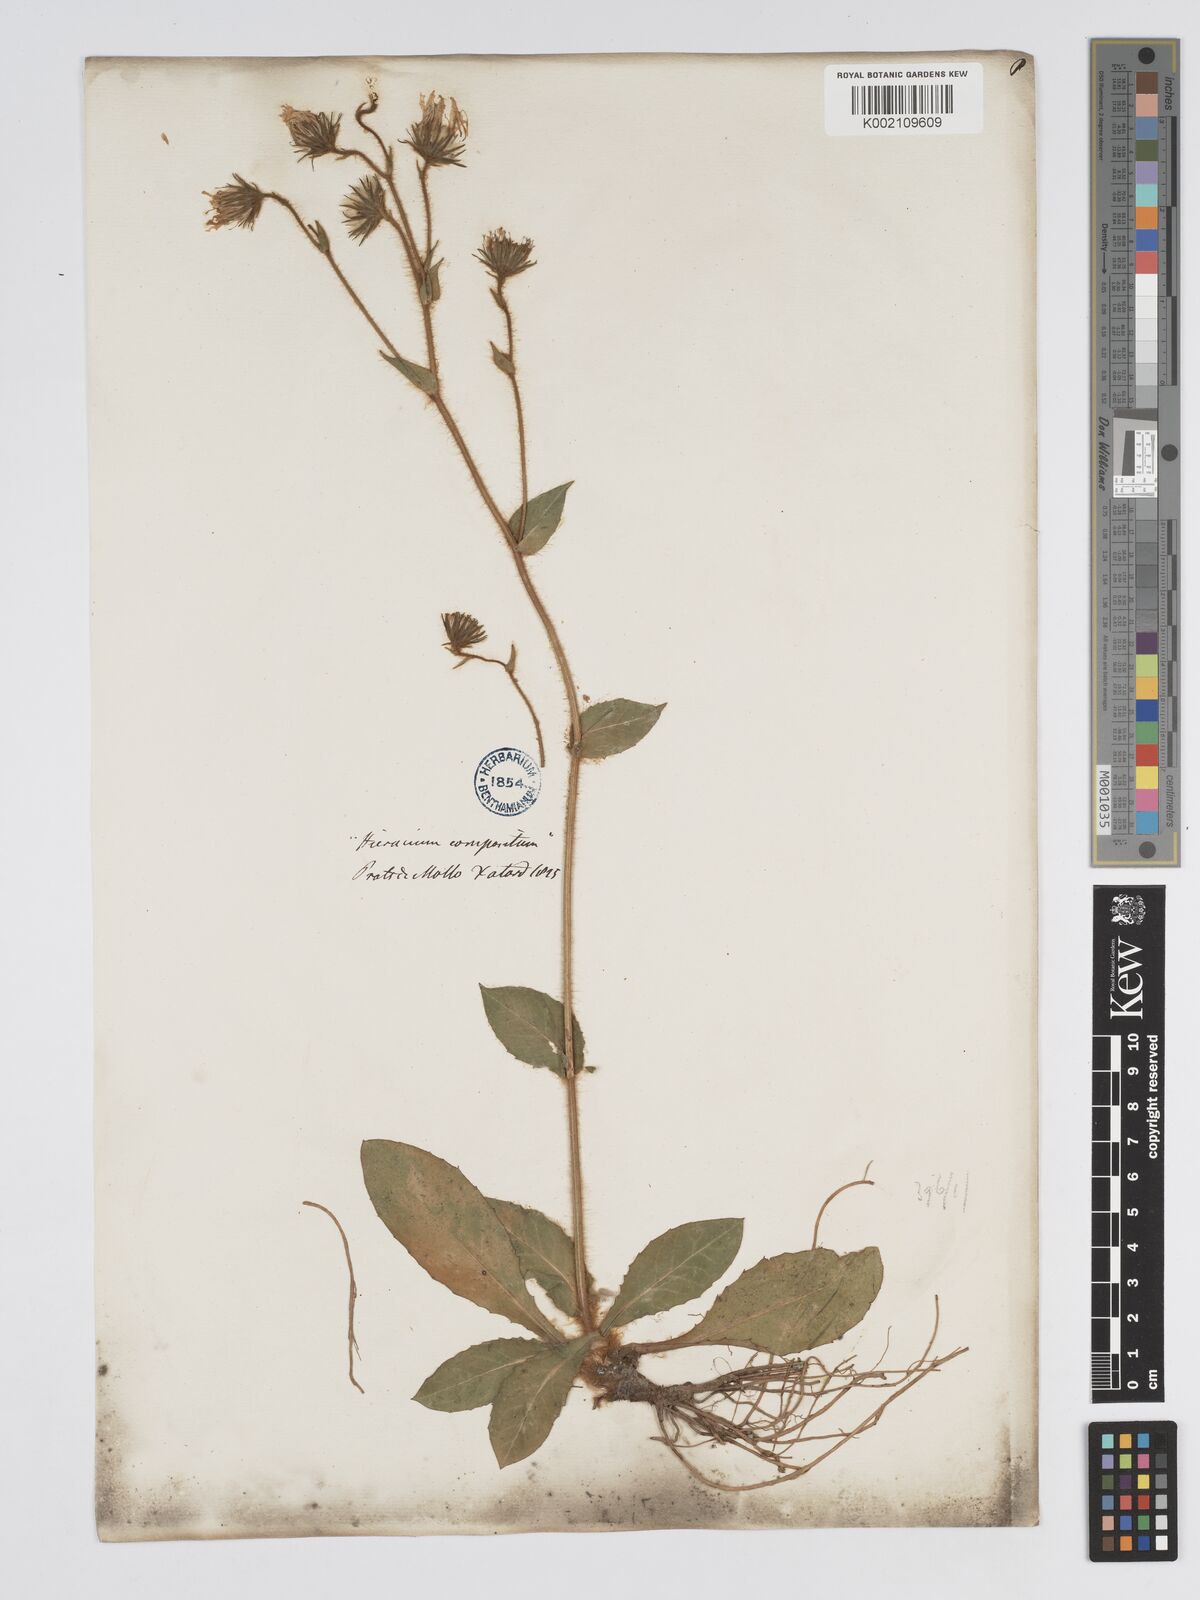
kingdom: Plantae
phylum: Tracheophyta
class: Magnoliopsida
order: Asterales
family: Asteraceae
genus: Hieracium
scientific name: Hieracium compositum
